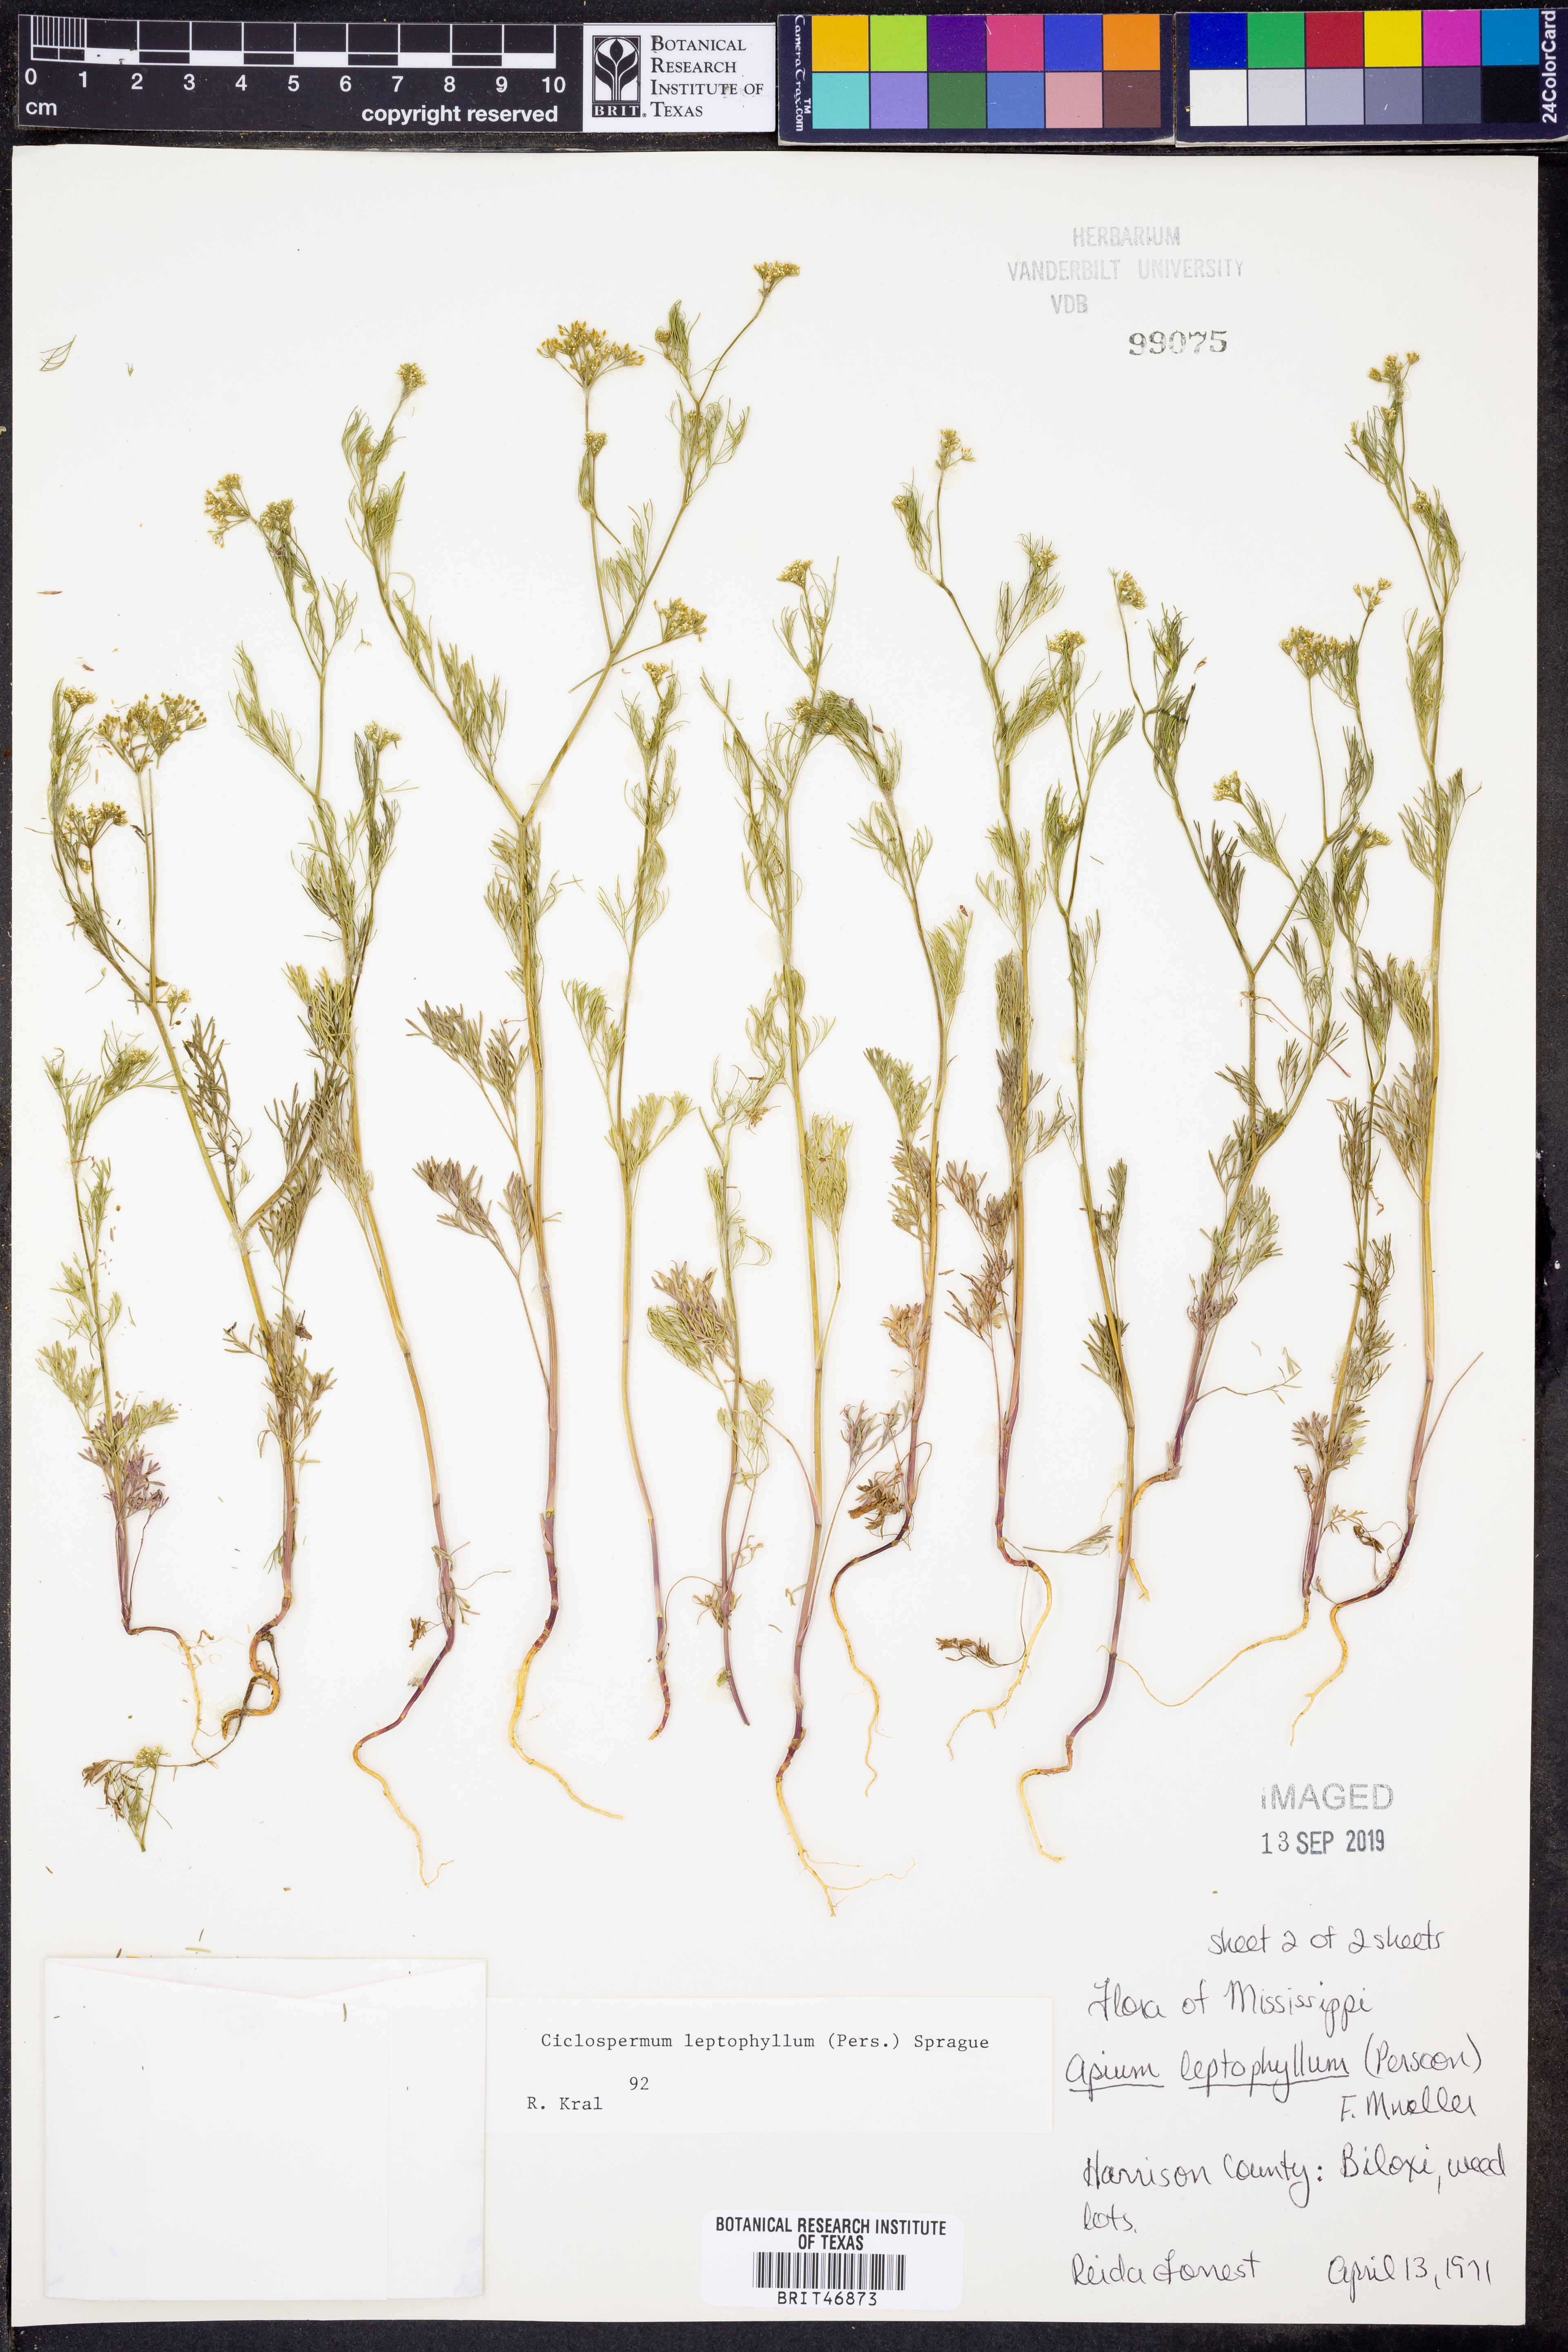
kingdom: Plantae
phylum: Tracheophyta
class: Magnoliopsida
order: Apiales
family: Apiaceae
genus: Cyclospermum
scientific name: Cyclospermum leptophyllum
